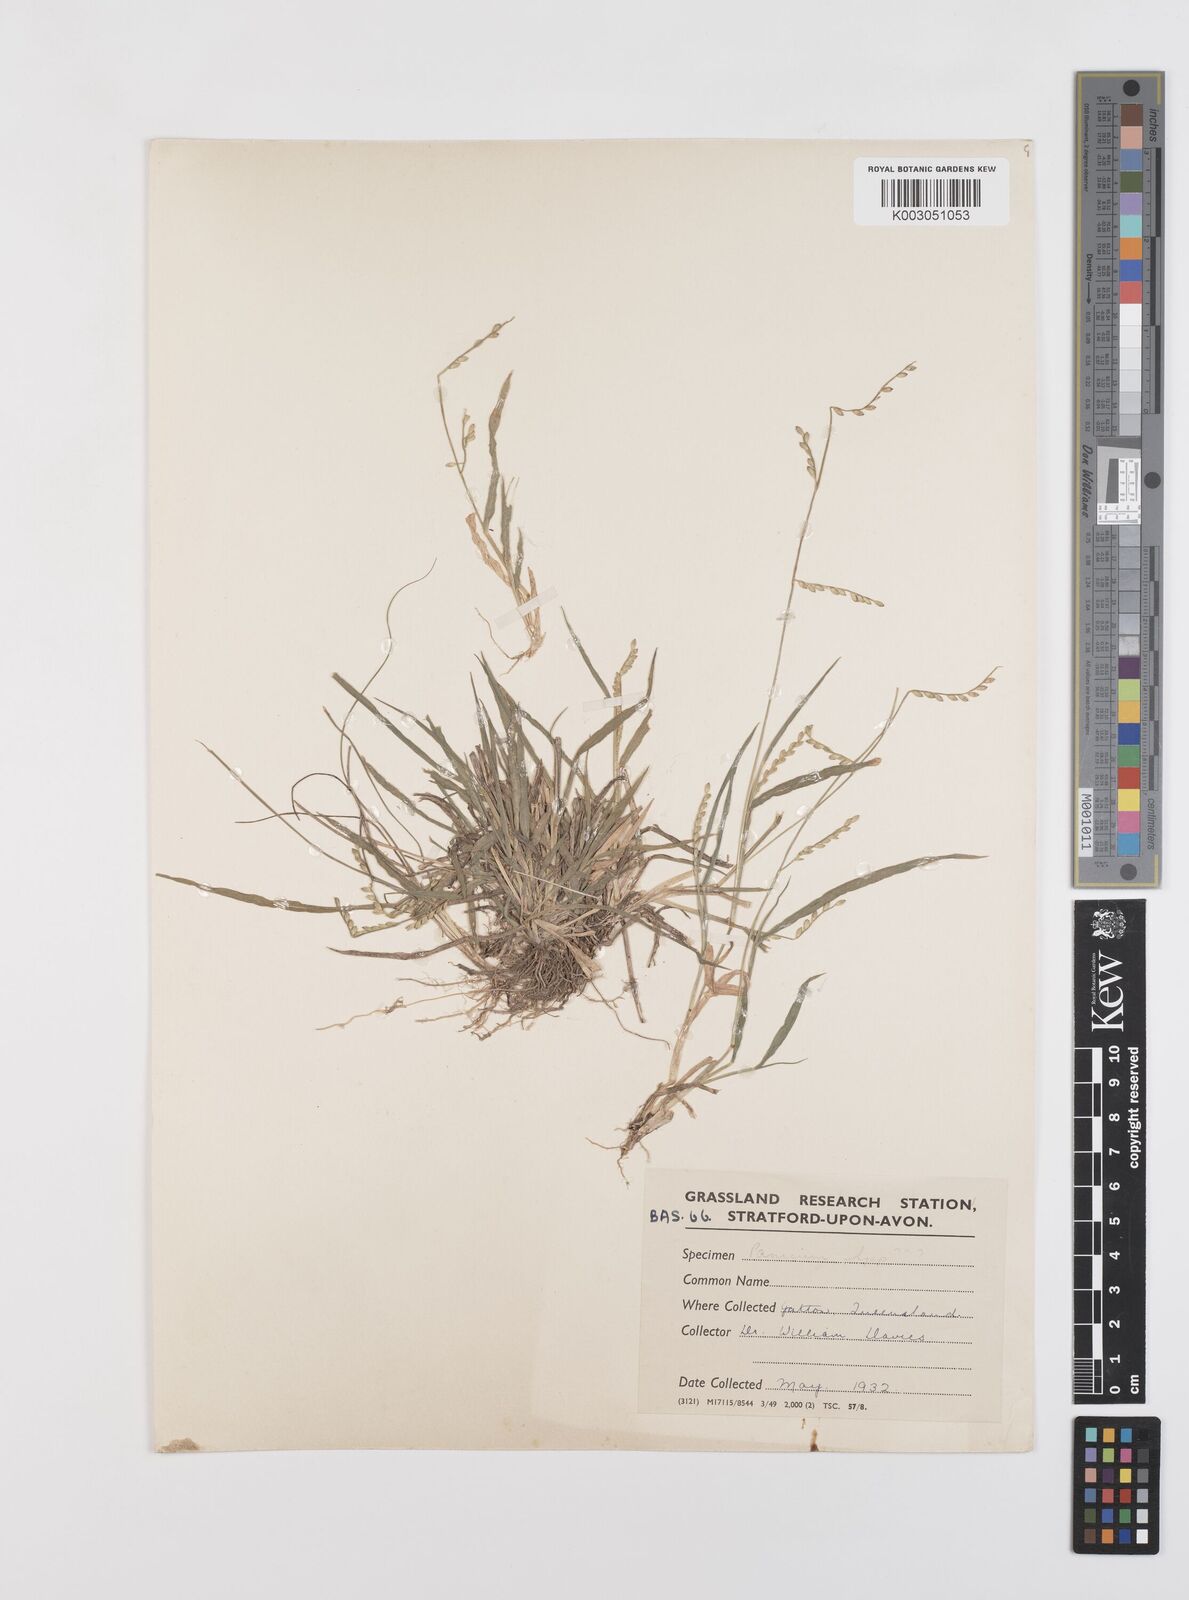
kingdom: Plantae
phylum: Tracheophyta
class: Liliopsida
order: Poales
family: Poaceae
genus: Urochloa
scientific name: Urochloa piligera
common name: Wattle signalgrass
